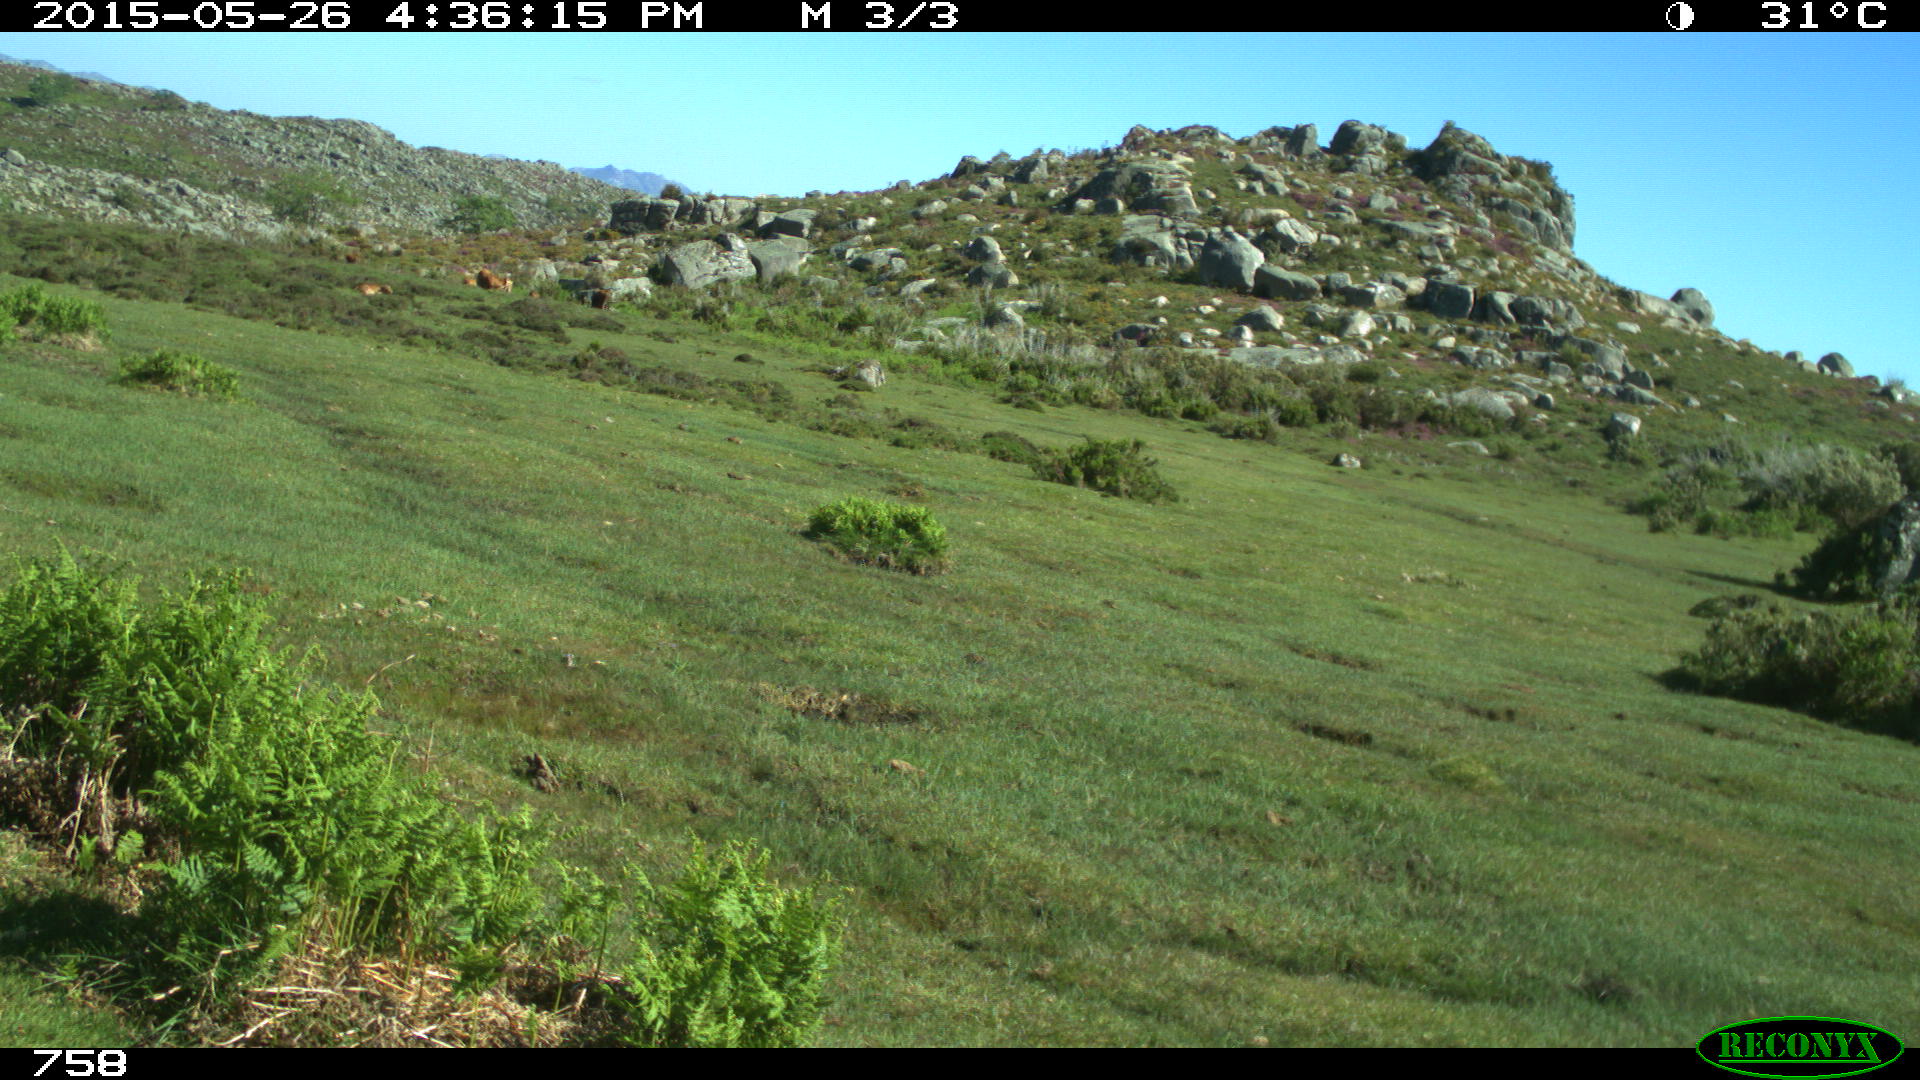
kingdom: Animalia
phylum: Chordata
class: Mammalia
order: Artiodactyla
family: Bovidae
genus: Bos
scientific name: Bos taurus
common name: Domesticated cattle
